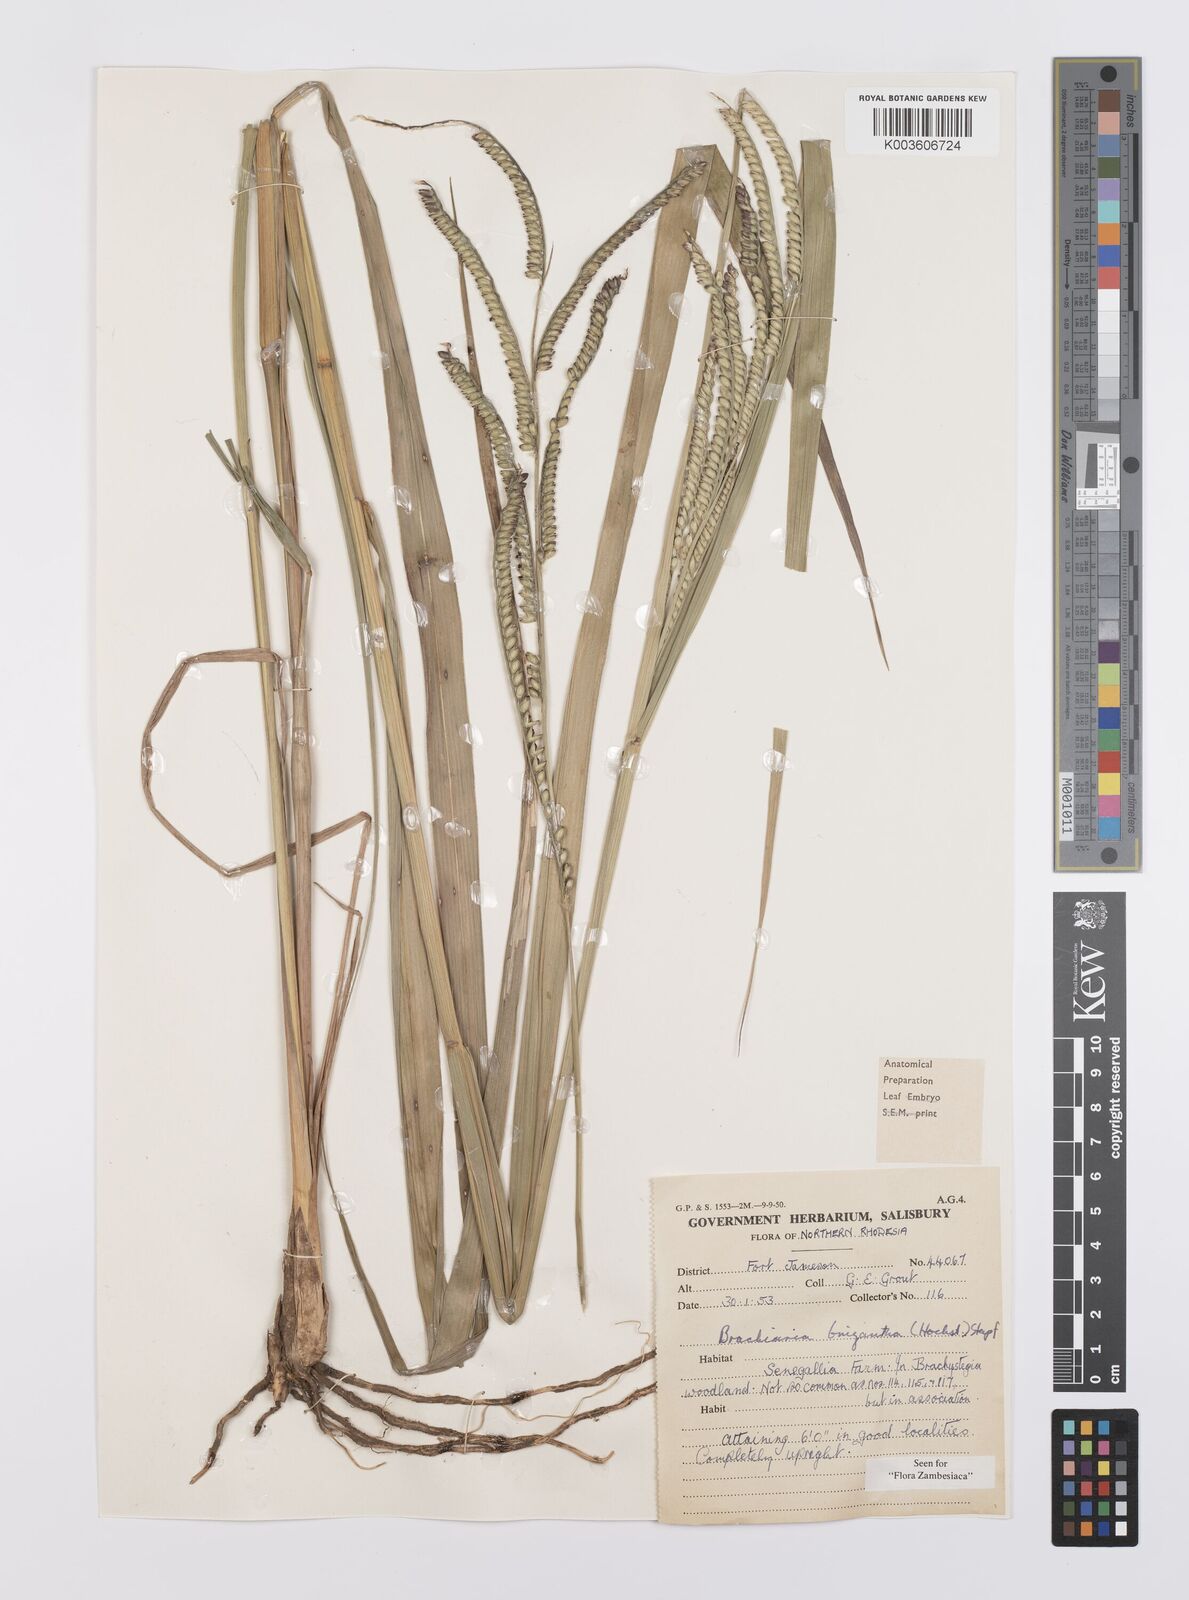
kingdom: Plantae
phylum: Tracheophyta
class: Liliopsida
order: Poales
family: Poaceae
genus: Urochloa
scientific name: Urochloa brizantha
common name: Palisade signalgrass
